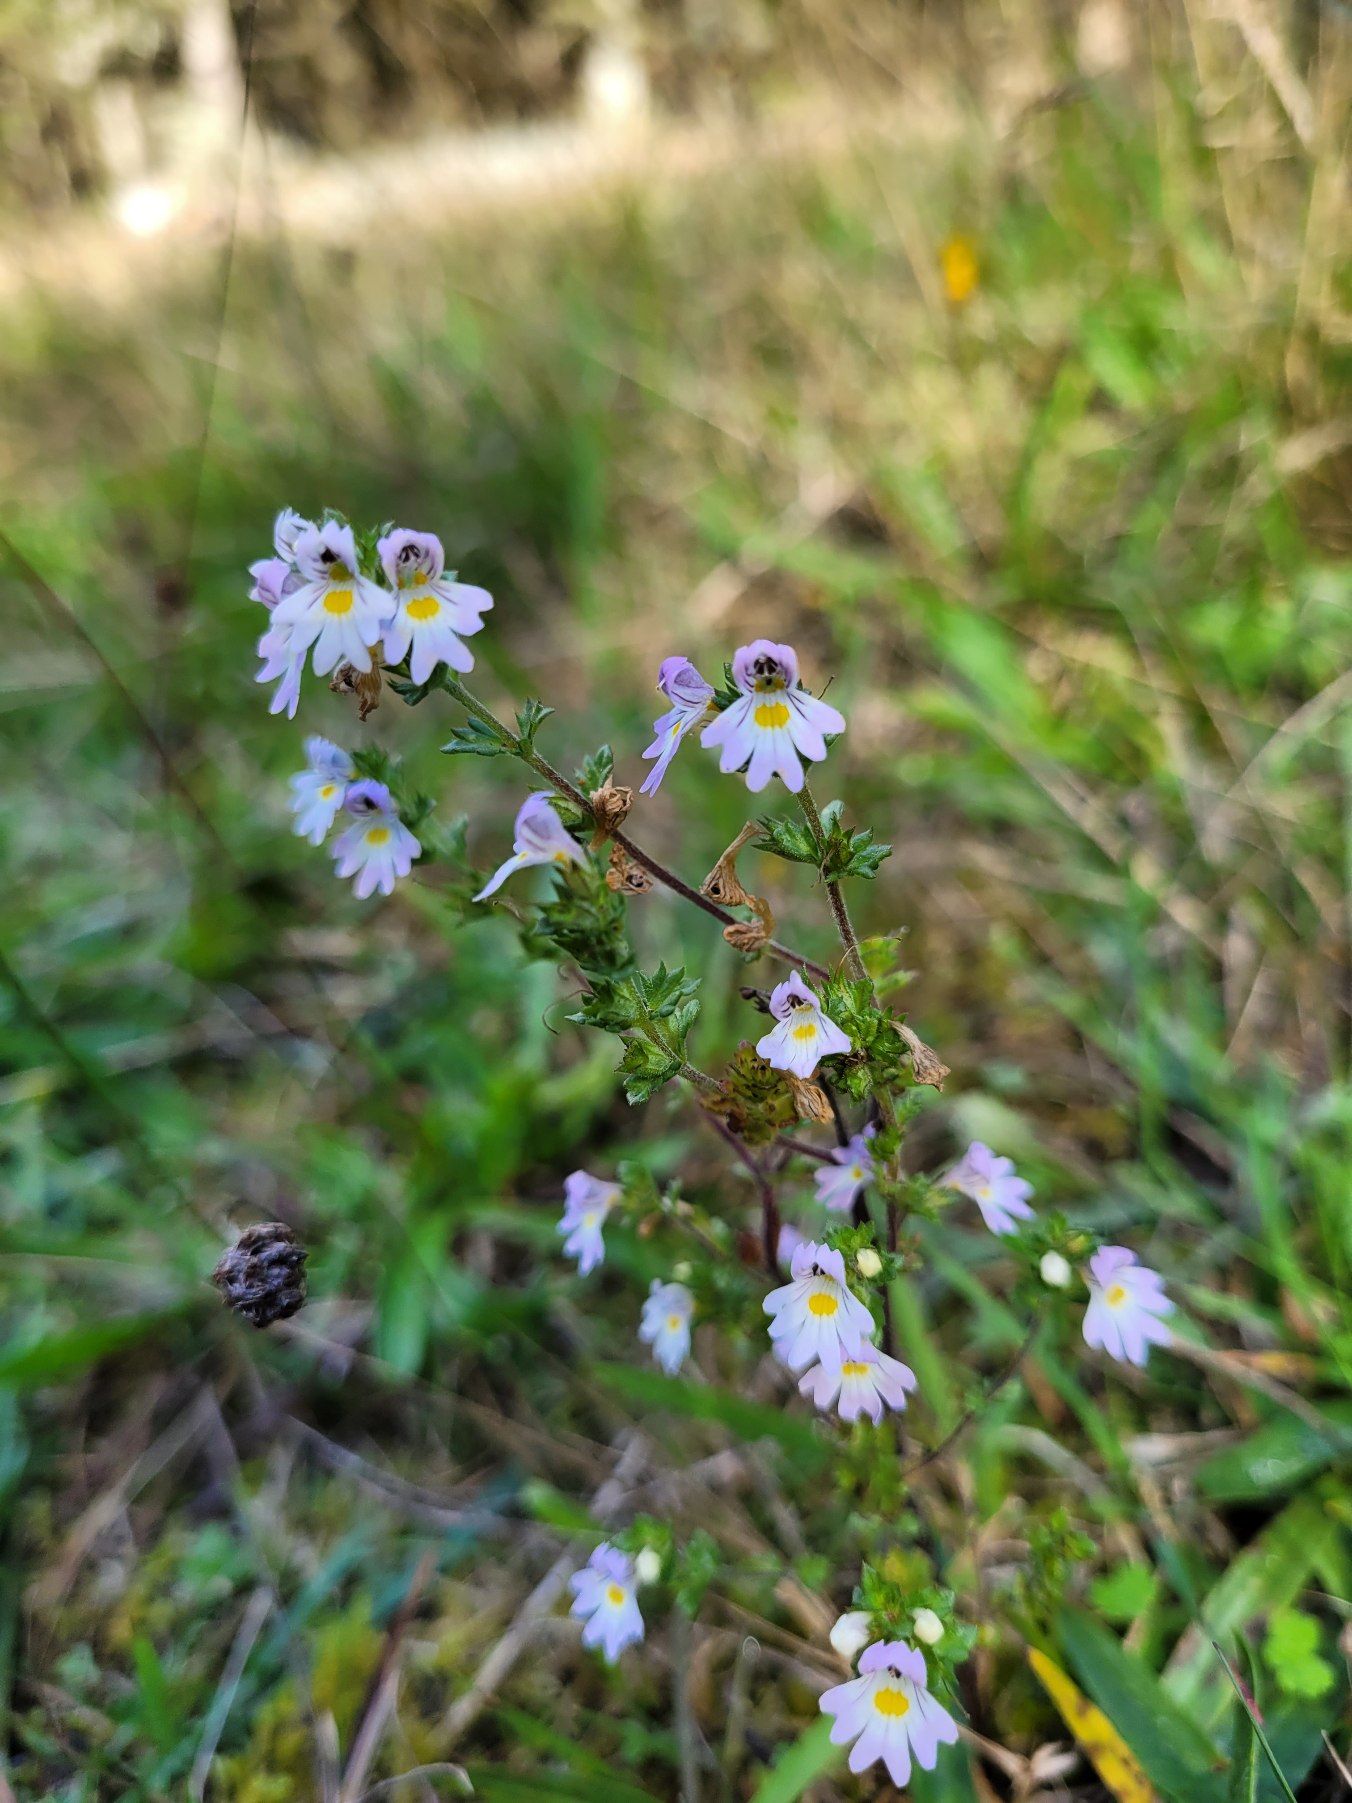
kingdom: Plantae
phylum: Tracheophyta
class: Magnoliopsida
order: Lamiales
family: Orobanchaceae
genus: Euphrasia
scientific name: Euphrasia nemorosa
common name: Kort øjentrøst
